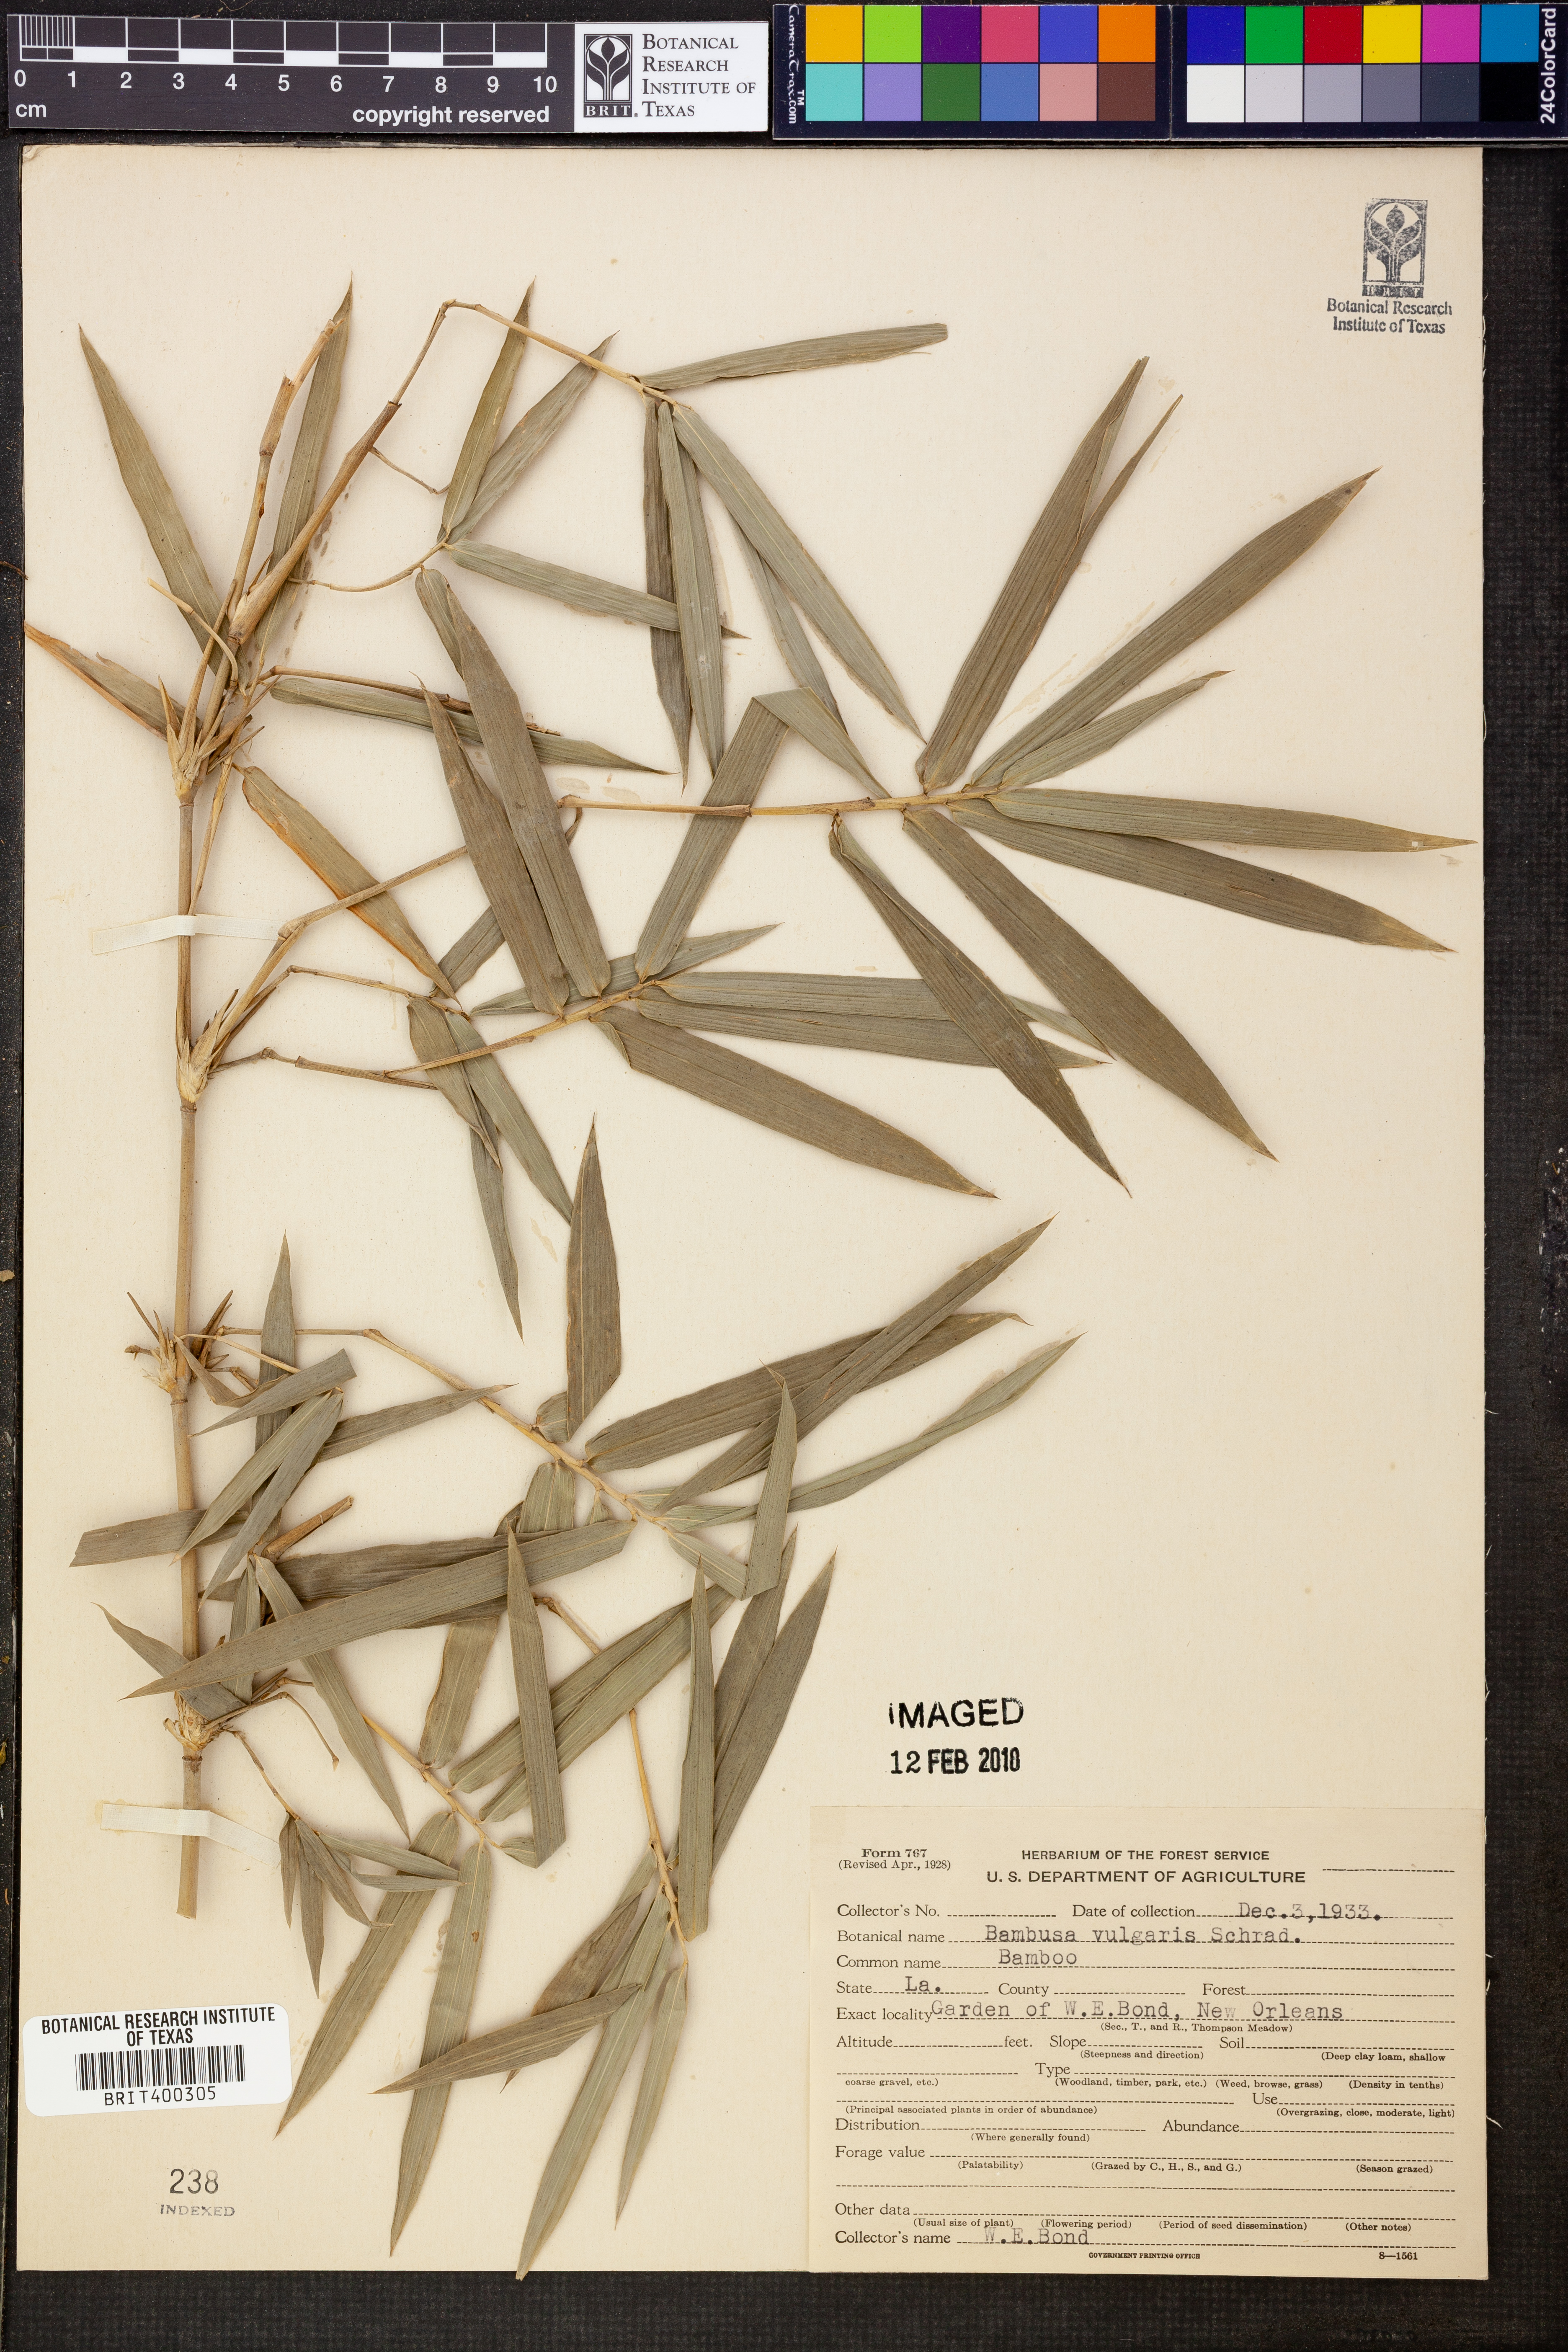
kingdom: Plantae
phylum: Tracheophyta
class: Liliopsida
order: Poales
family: Poaceae
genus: Bambusa
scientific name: Bambusa vulgaris
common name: Common bamboo
